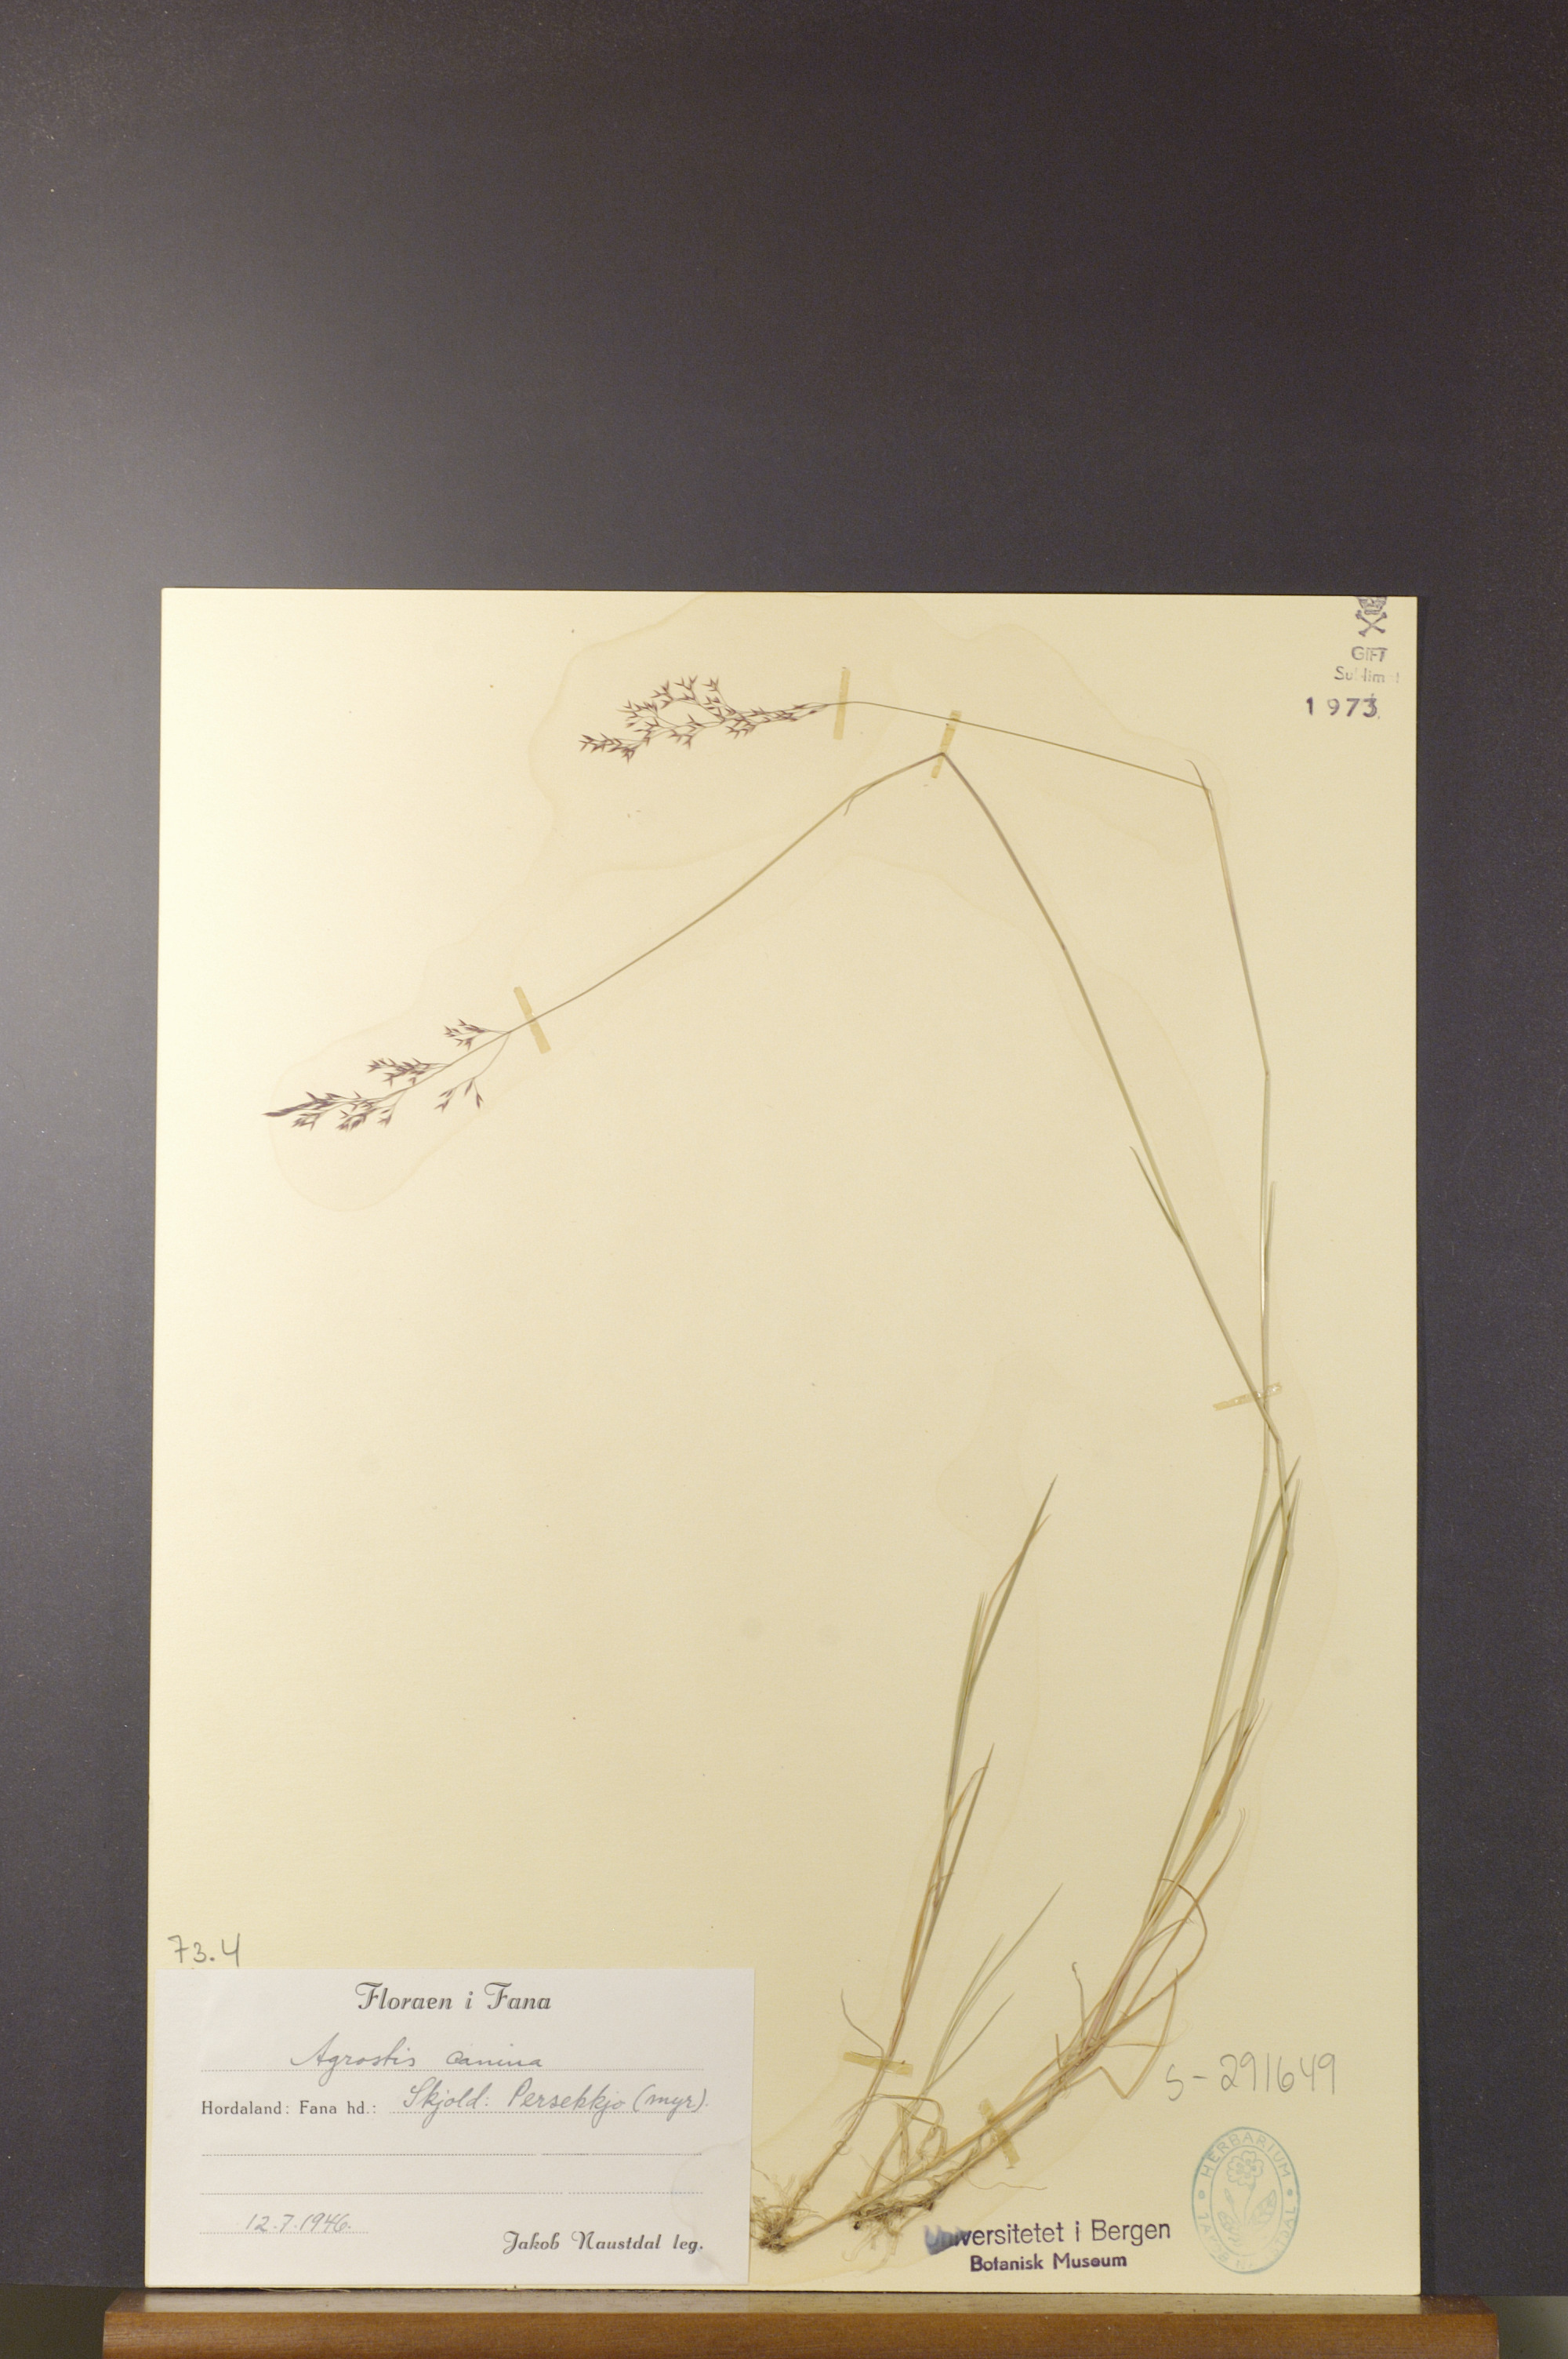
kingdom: Plantae
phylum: Tracheophyta
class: Liliopsida
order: Poales
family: Poaceae
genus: Agrostis
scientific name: Agrostis canina
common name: Velvet bent
